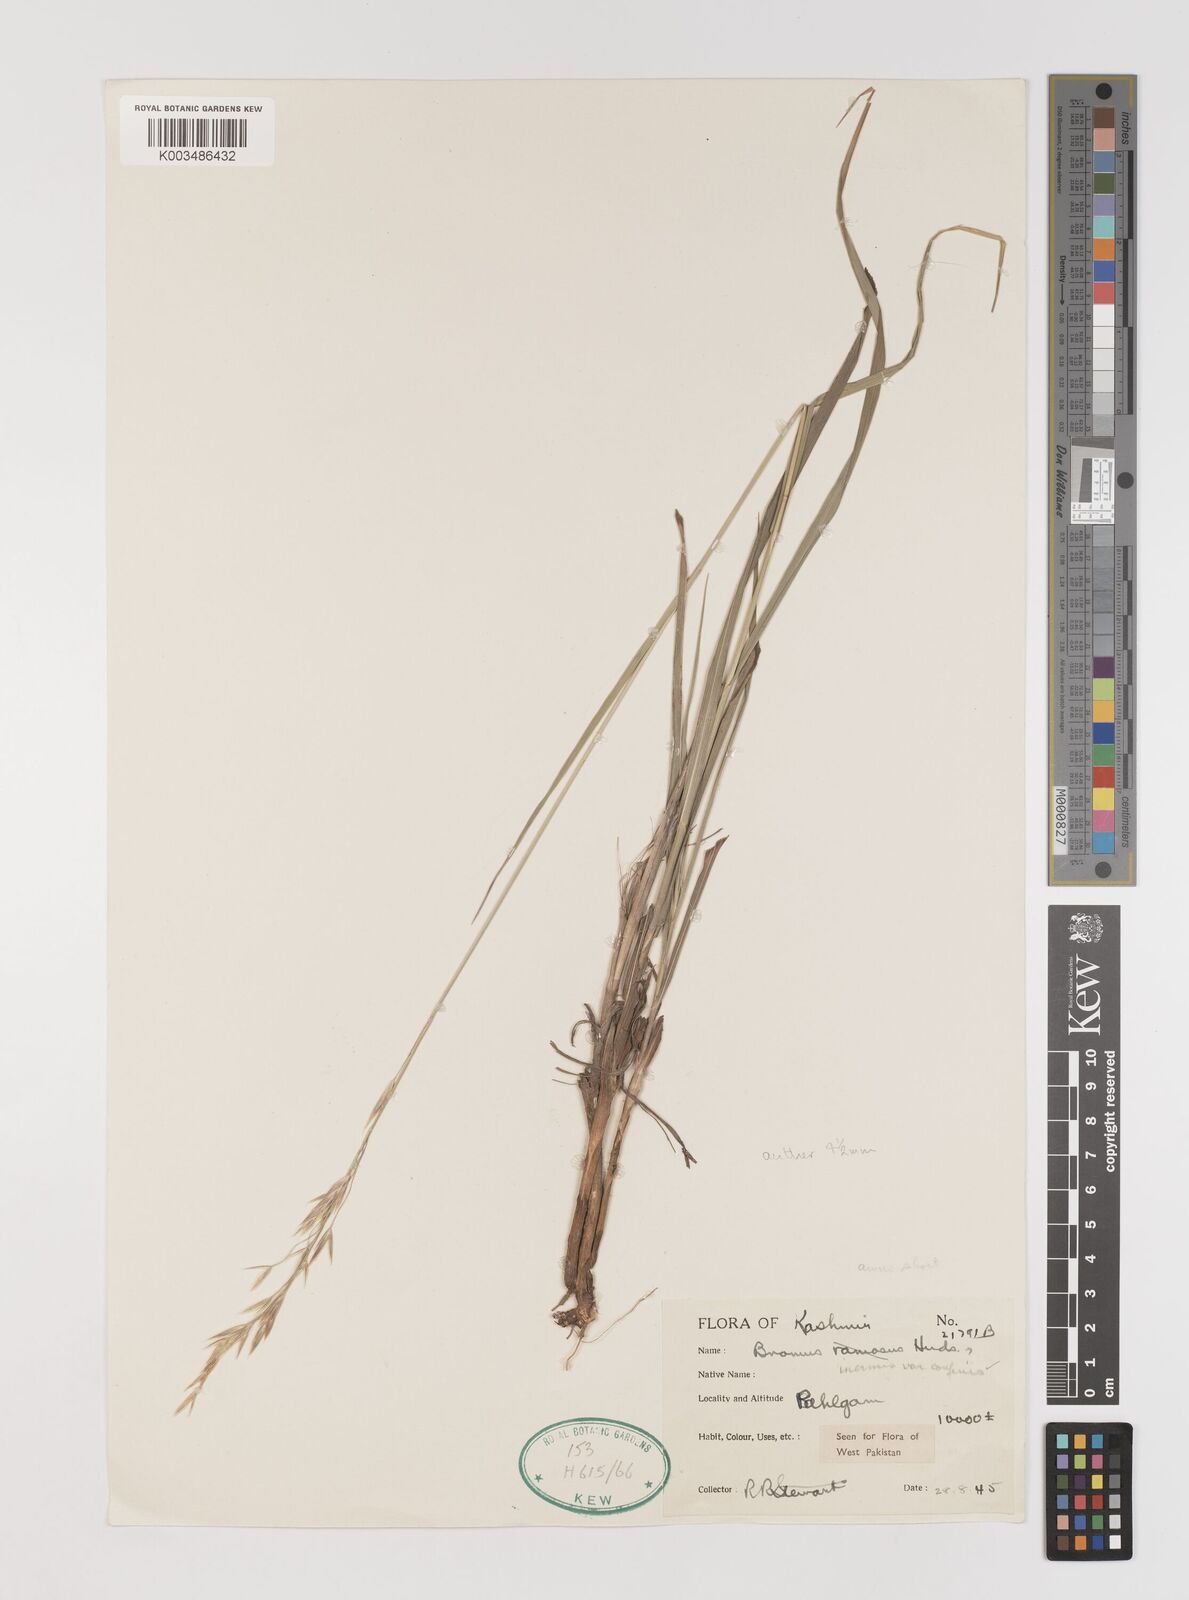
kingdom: Plantae
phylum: Tracheophyta
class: Liliopsida
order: Poales
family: Poaceae
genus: Bromus
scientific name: Bromus confinis
